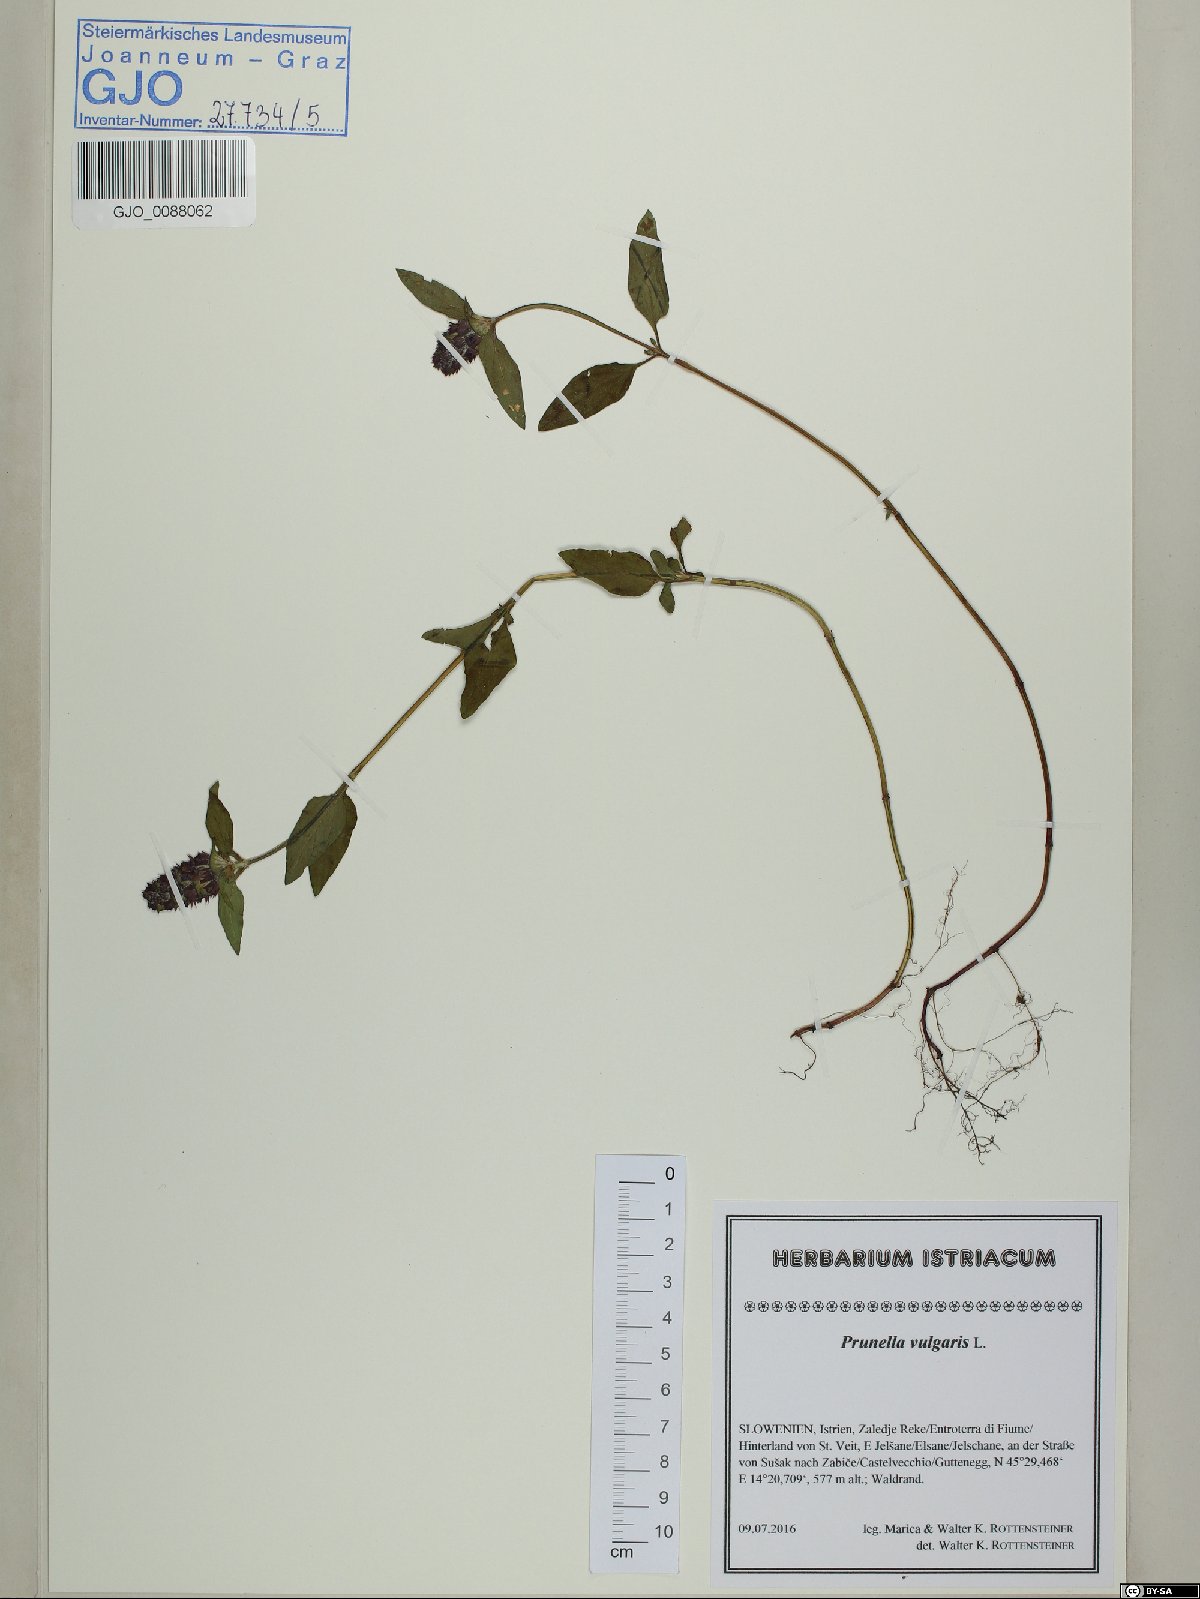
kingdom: Plantae
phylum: Tracheophyta
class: Magnoliopsida
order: Lamiales
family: Lamiaceae
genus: Prunella
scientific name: Prunella vulgaris
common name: Heal-all
